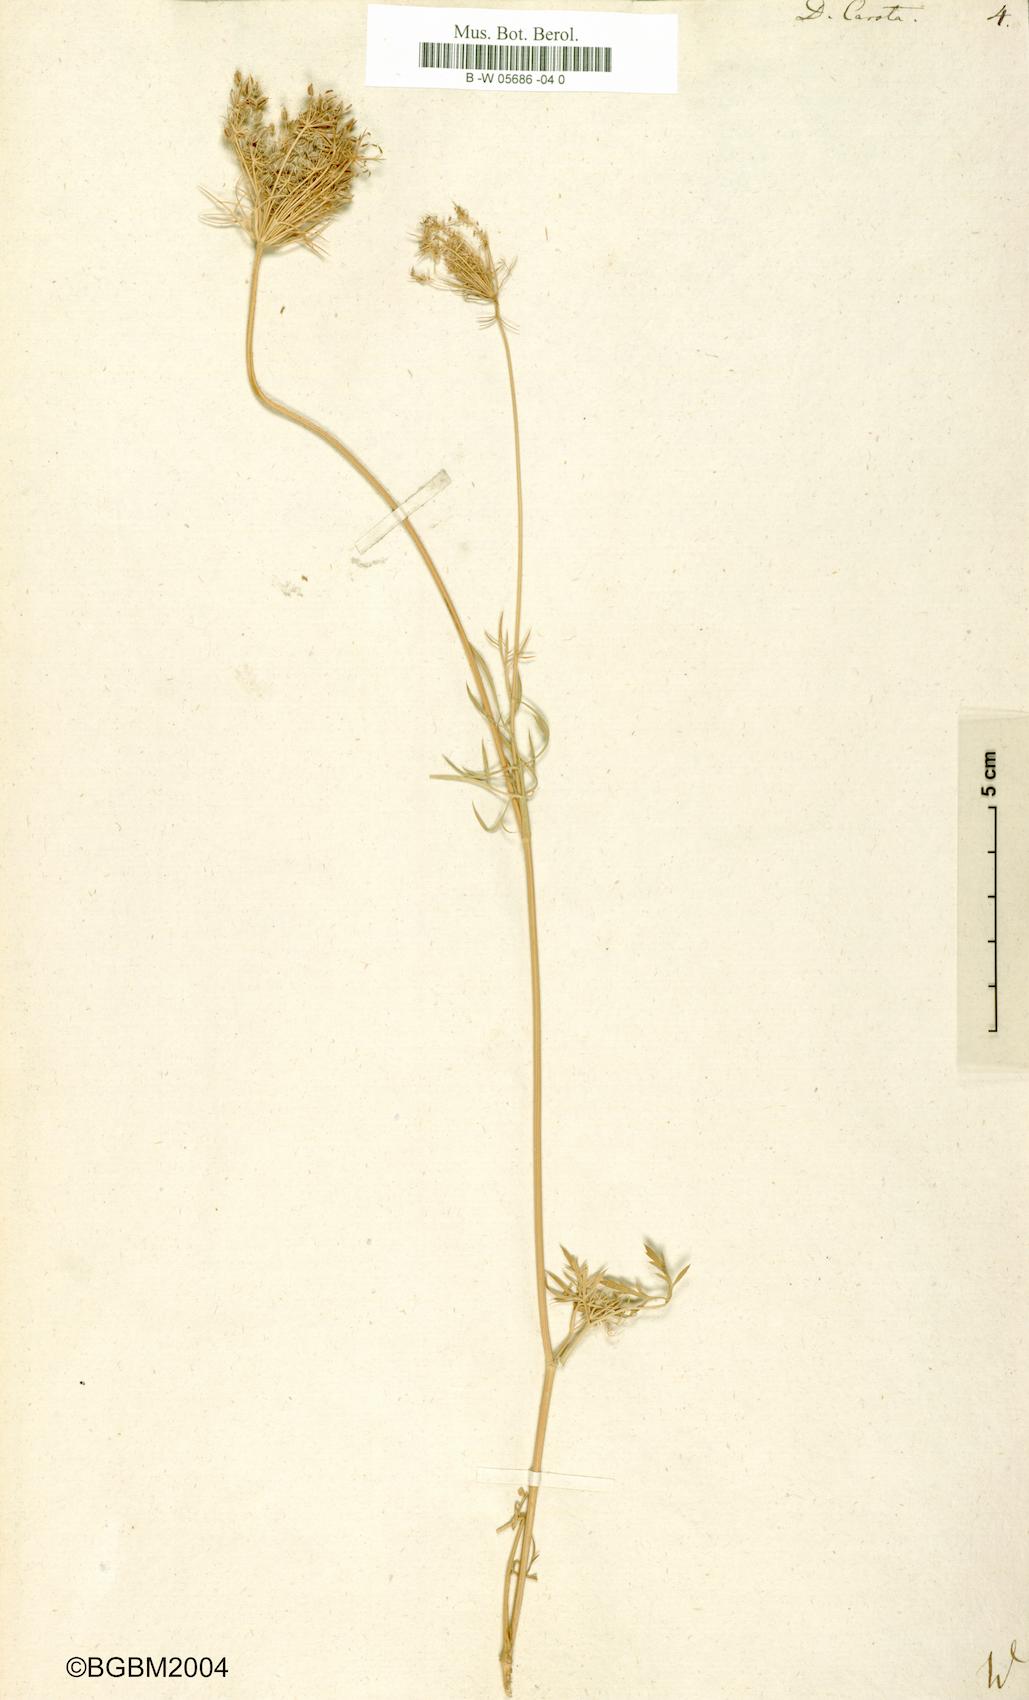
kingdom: Plantae
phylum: Tracheophyta
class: Magnoliopsida
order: Apiales
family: Apiaceae
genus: Daucus
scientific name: Daucus carota
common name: Wild carrot
